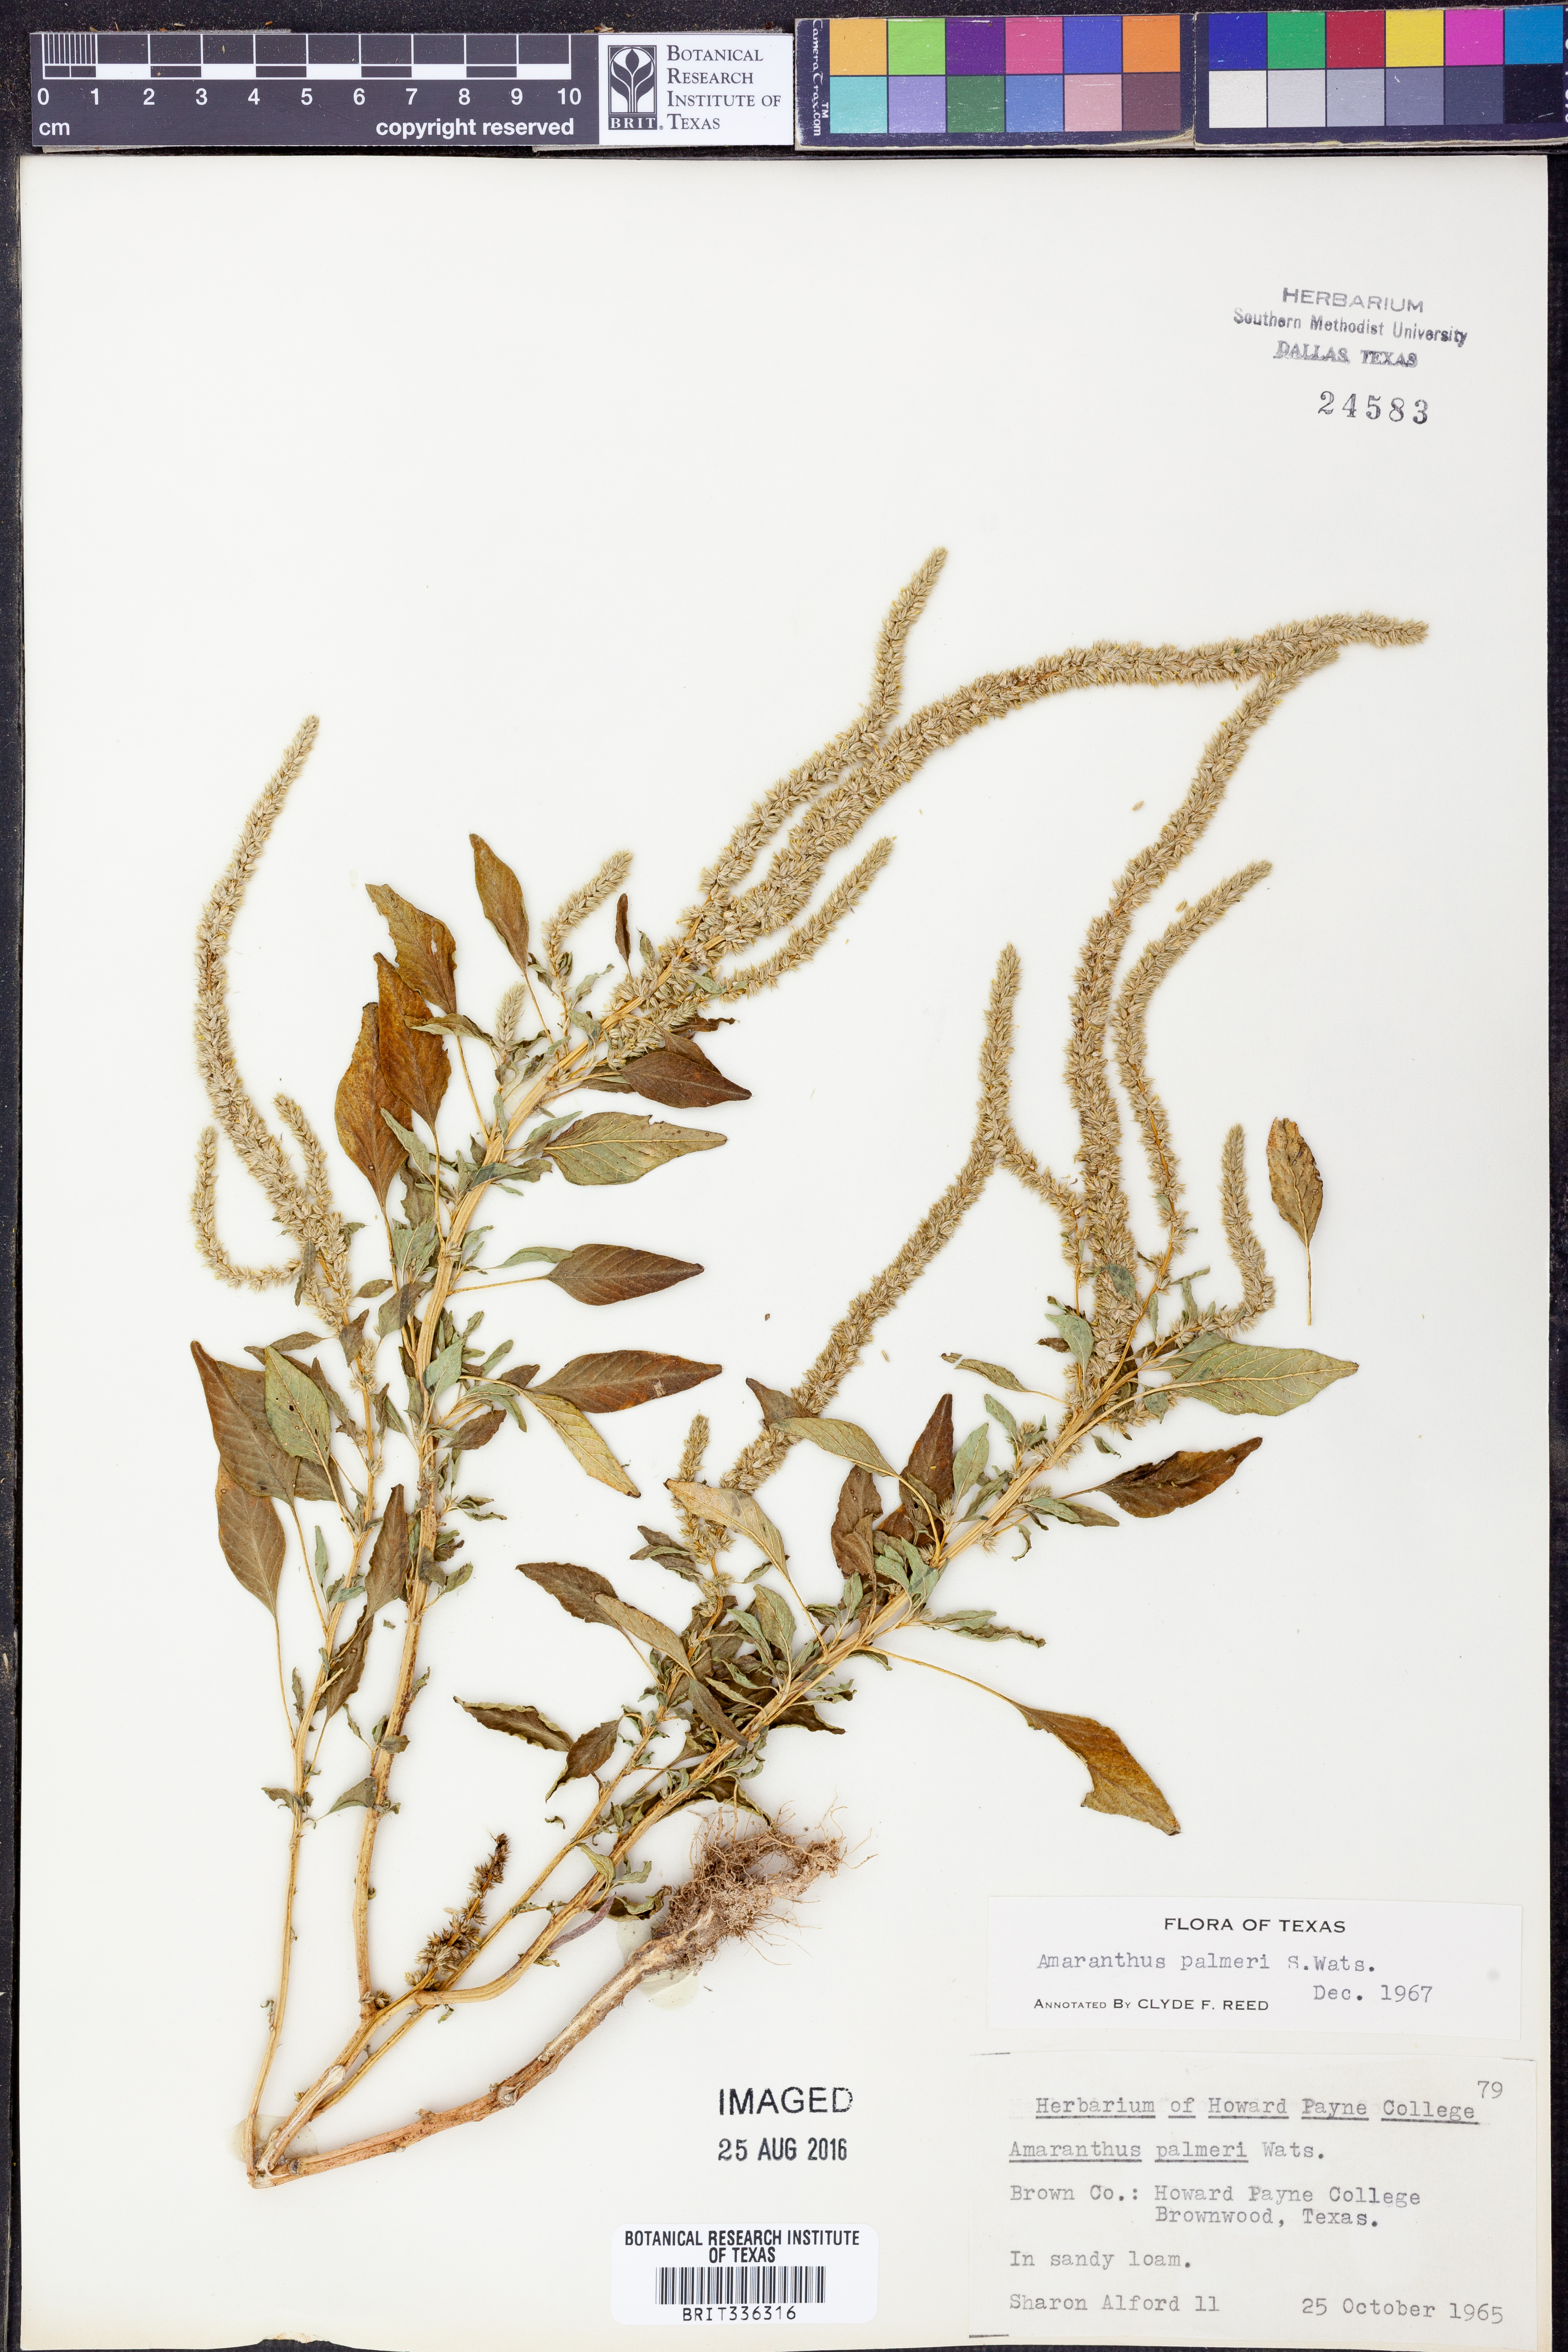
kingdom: Plantae
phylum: Tracheophyta
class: Magnoliopsida
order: Caryophyllales
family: Amaranthaceae
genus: Amaranthus
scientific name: Amaranthus palmeri
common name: Dioecious amaranth
